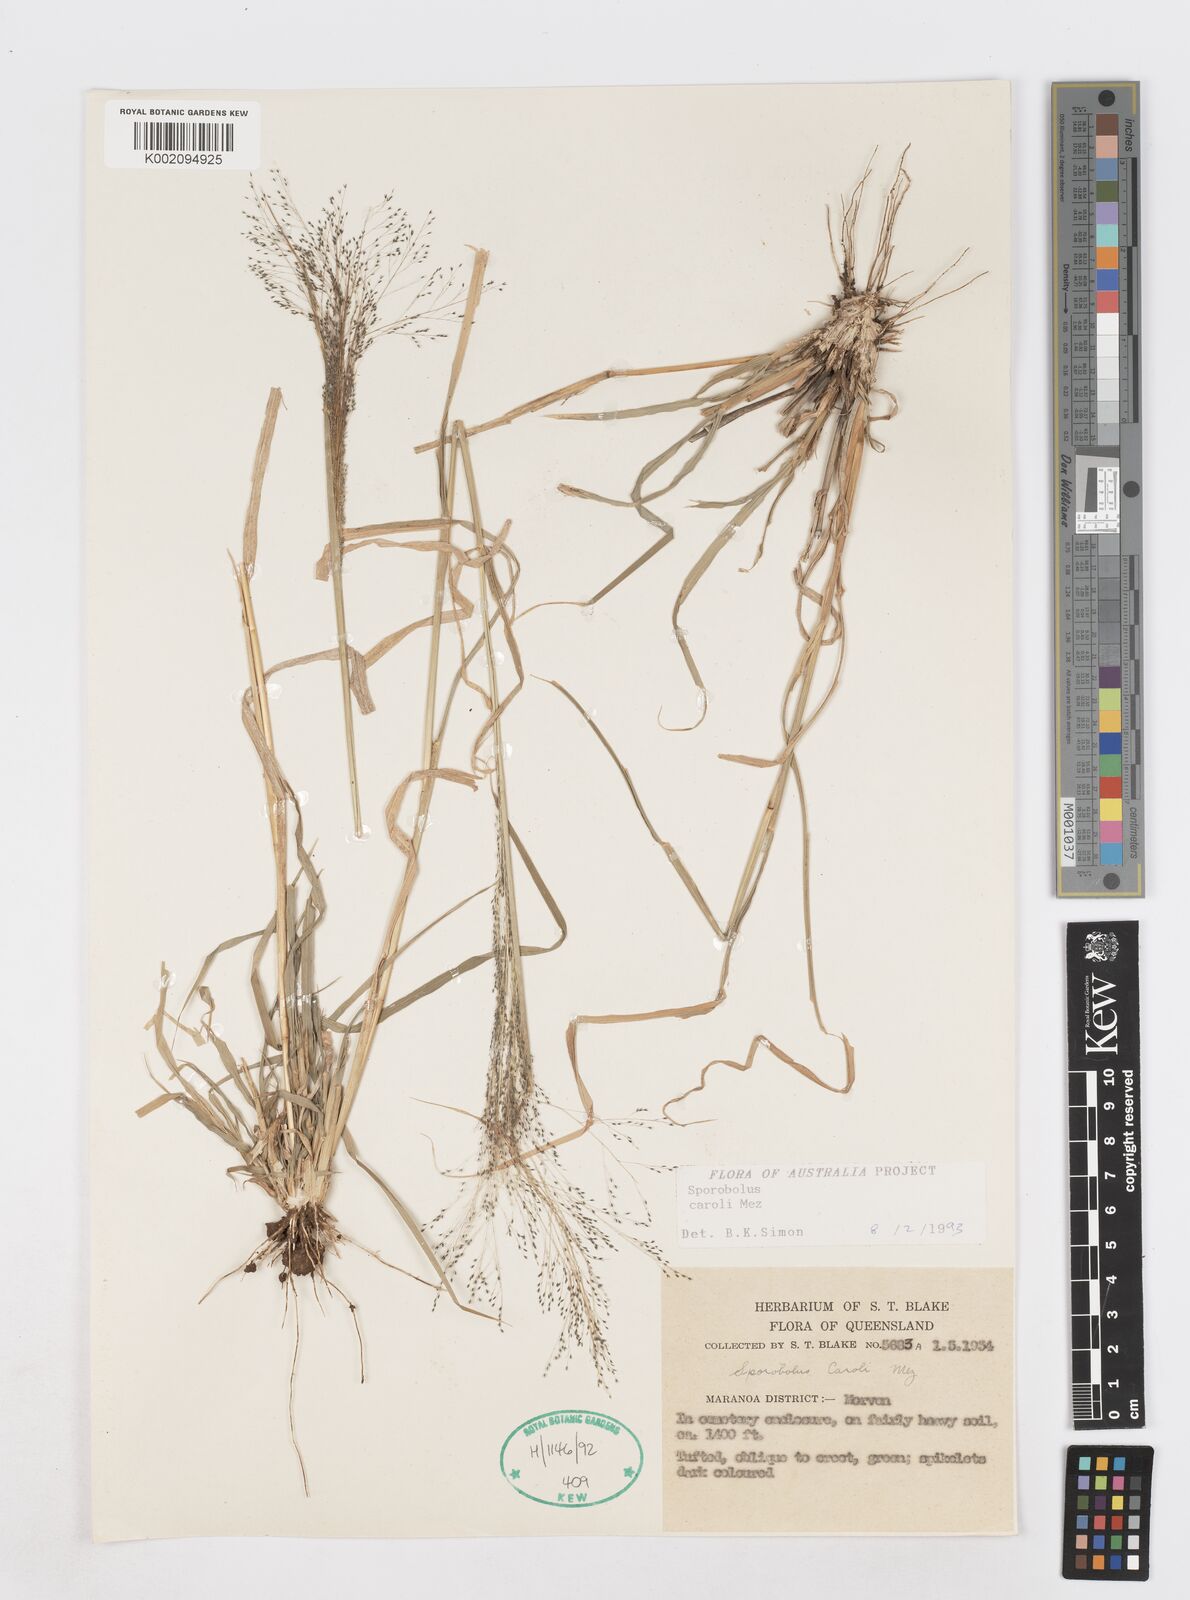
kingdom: Plantae
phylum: Tracheophyta
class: Liliopsida
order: Poales
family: Poaceae
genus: Sporobolus
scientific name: Sporobolus caroli
